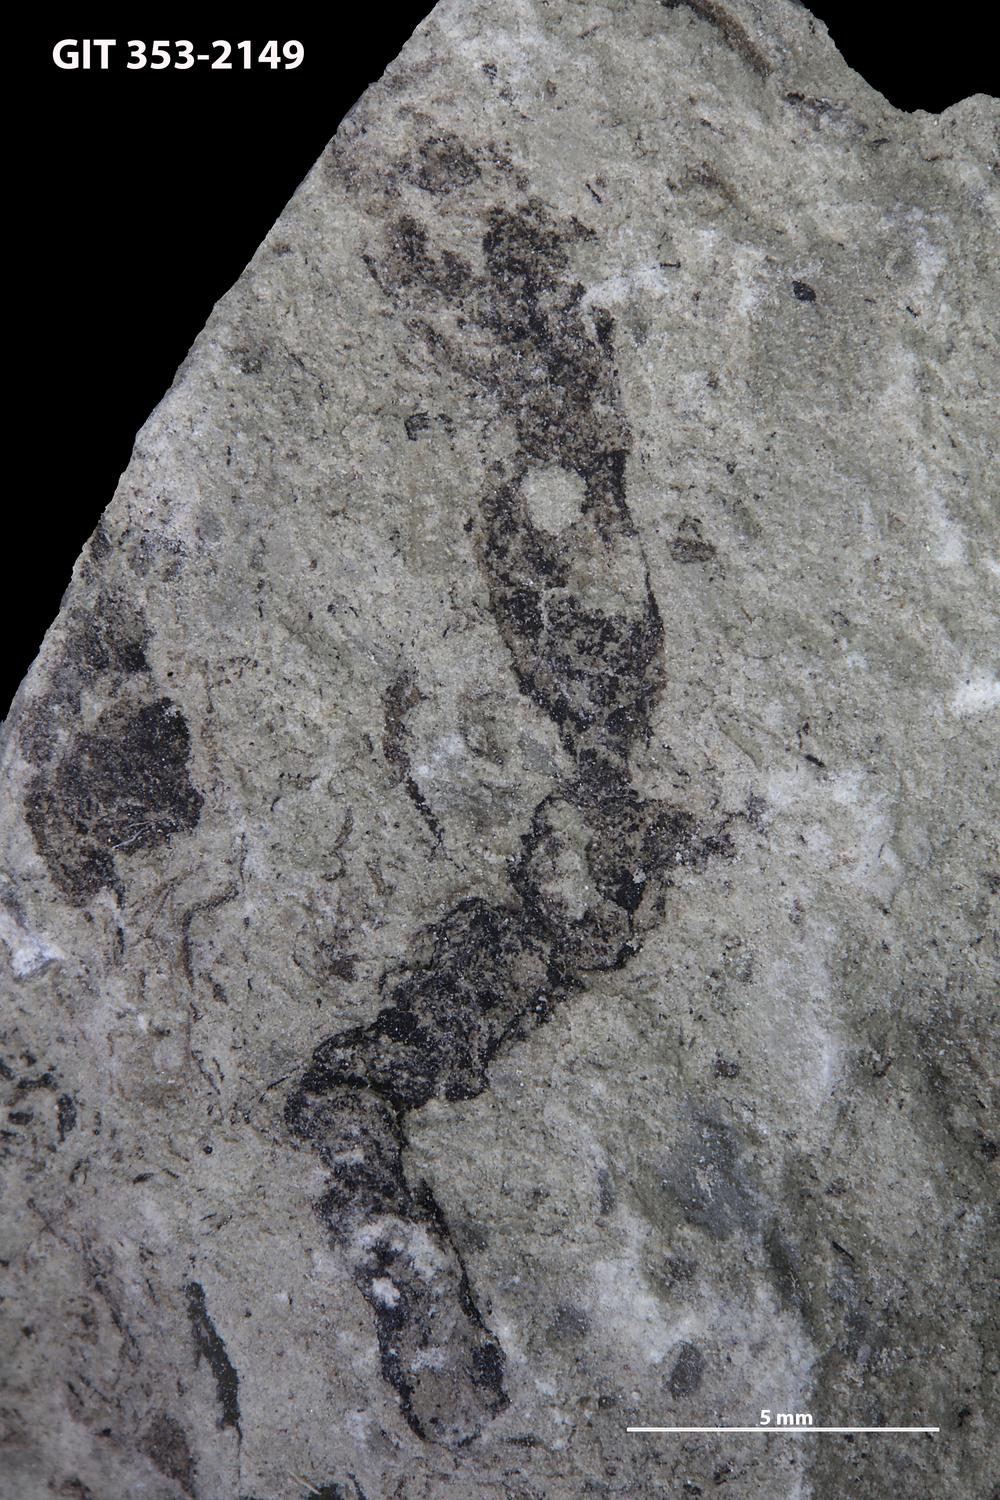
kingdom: Plantae
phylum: Tracheophyta
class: Pinopsida
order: Pinales
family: Cupressaceae
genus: Platycladus
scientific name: Platycladus
